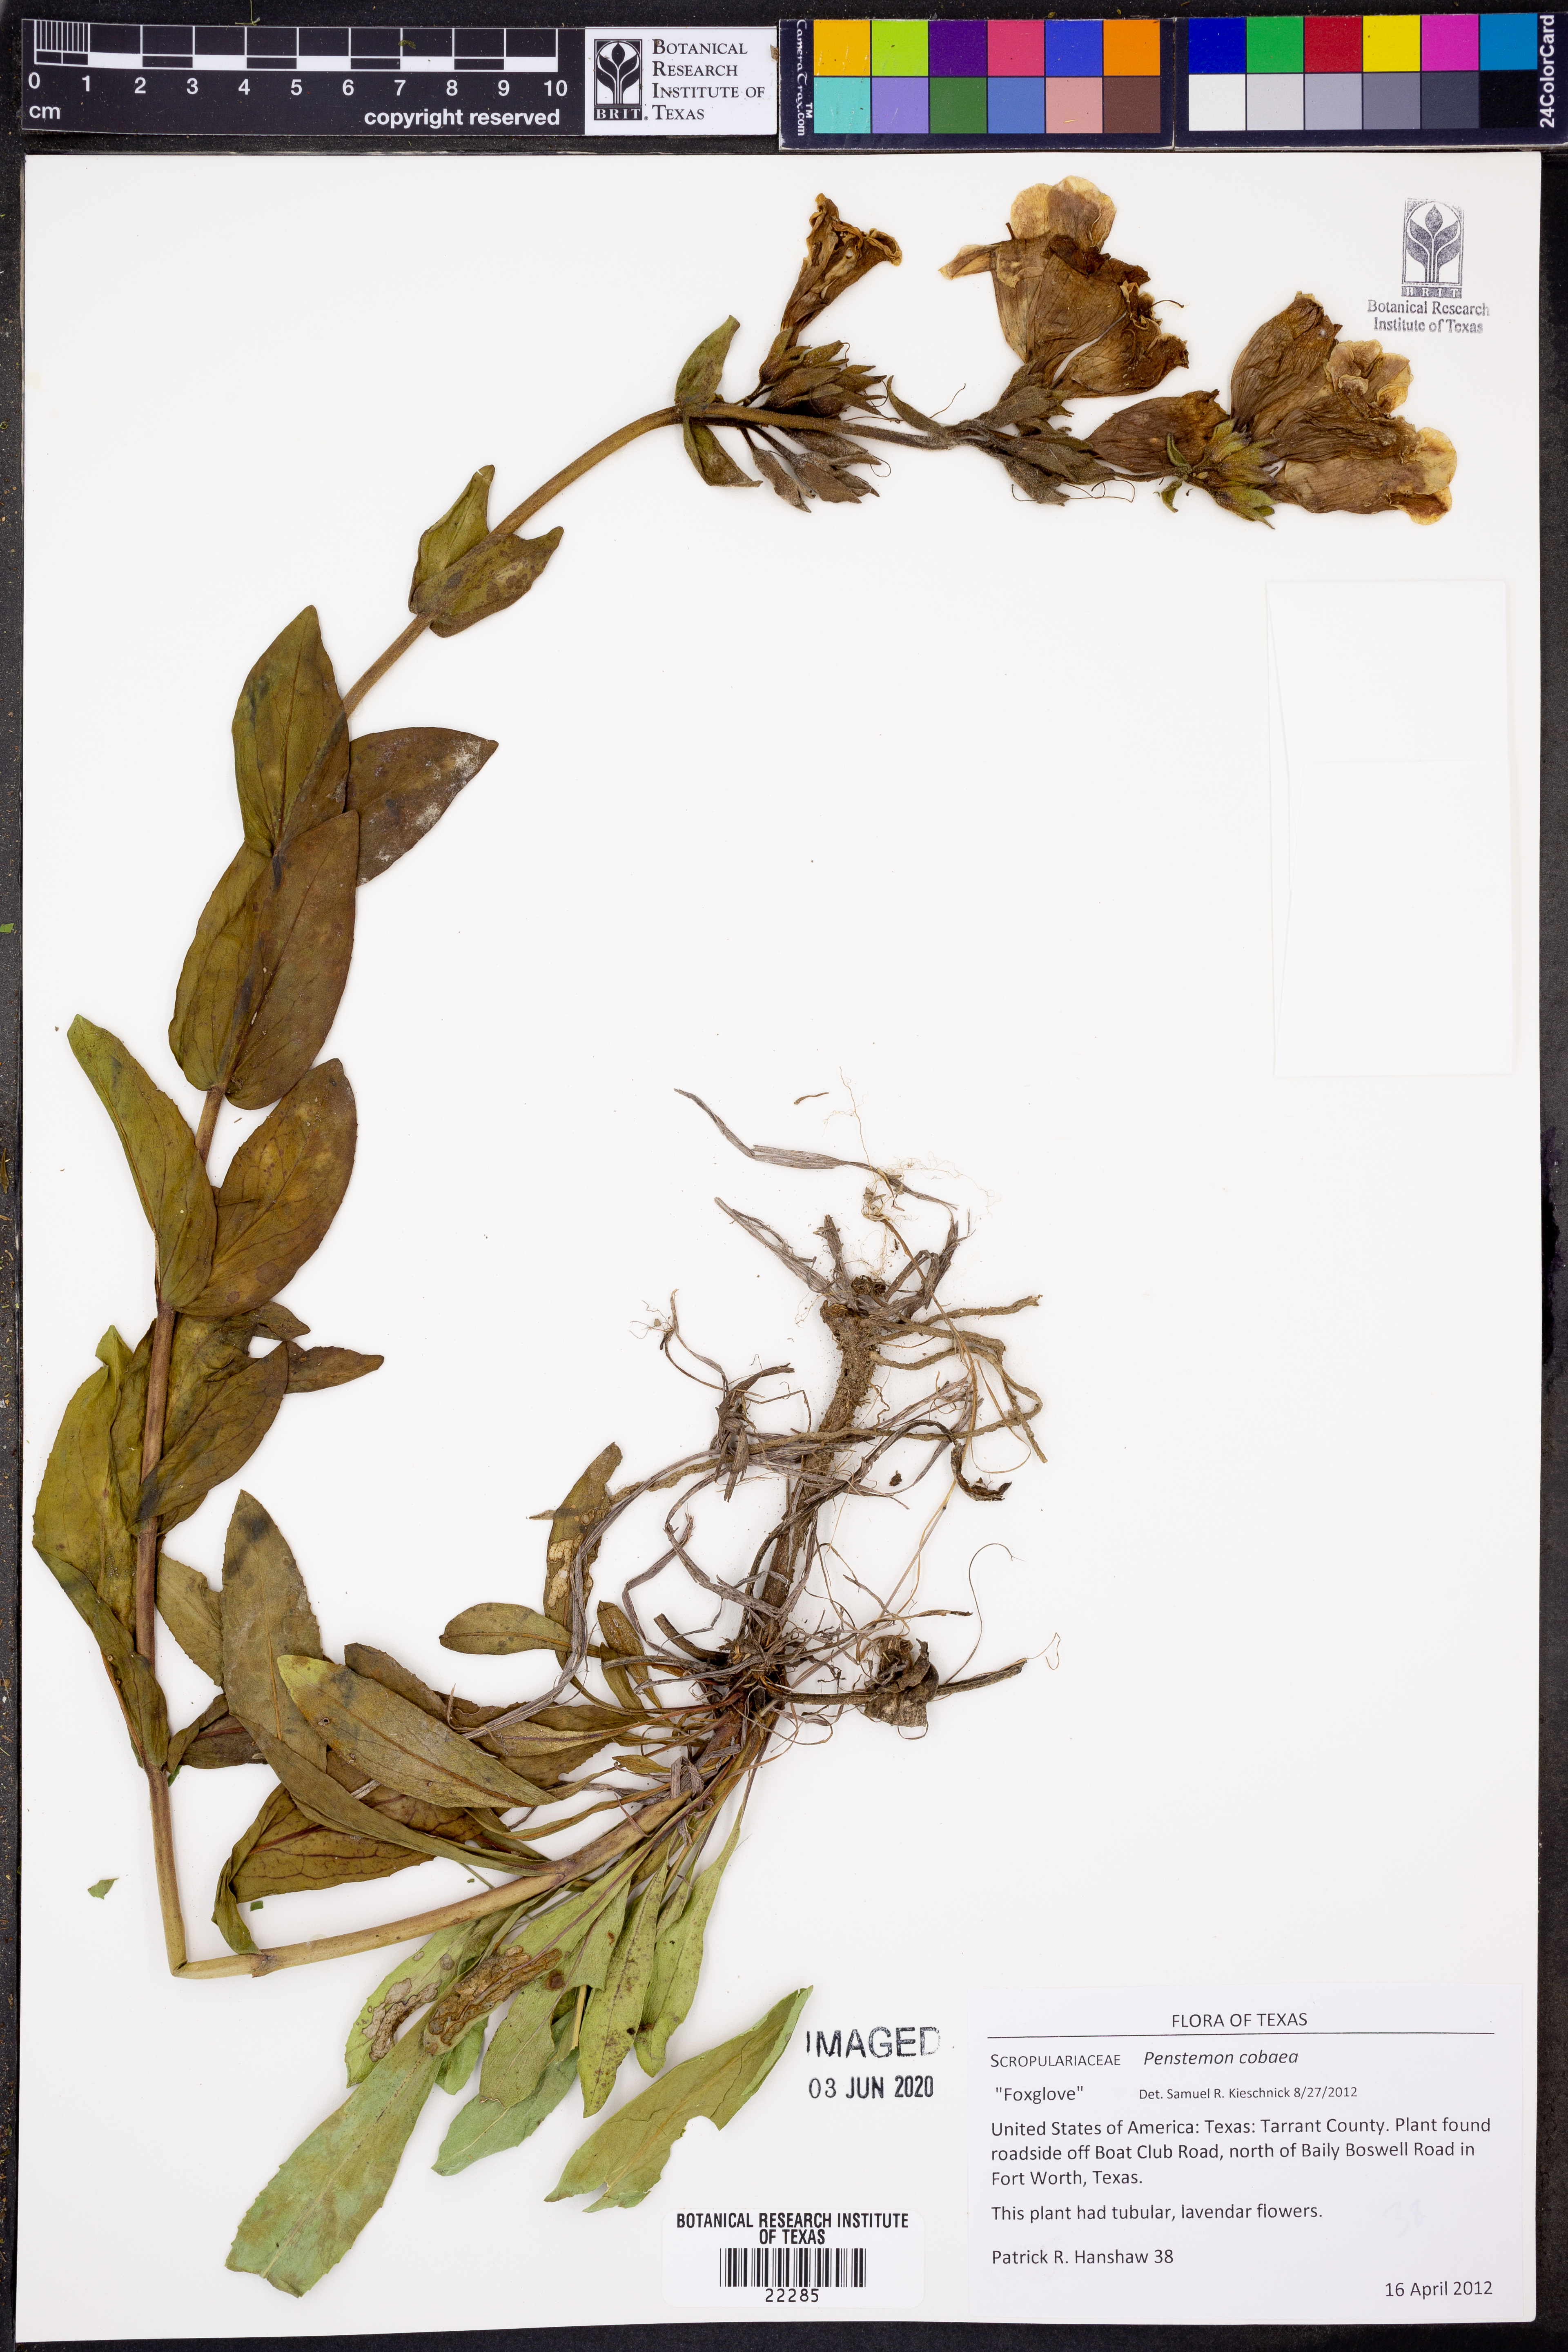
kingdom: Plantae
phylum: Tracheophyta
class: Magnoliopsida
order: Lamiales
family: Plantaginaceae
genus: Penstemon
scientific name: Penstemon cobaea
